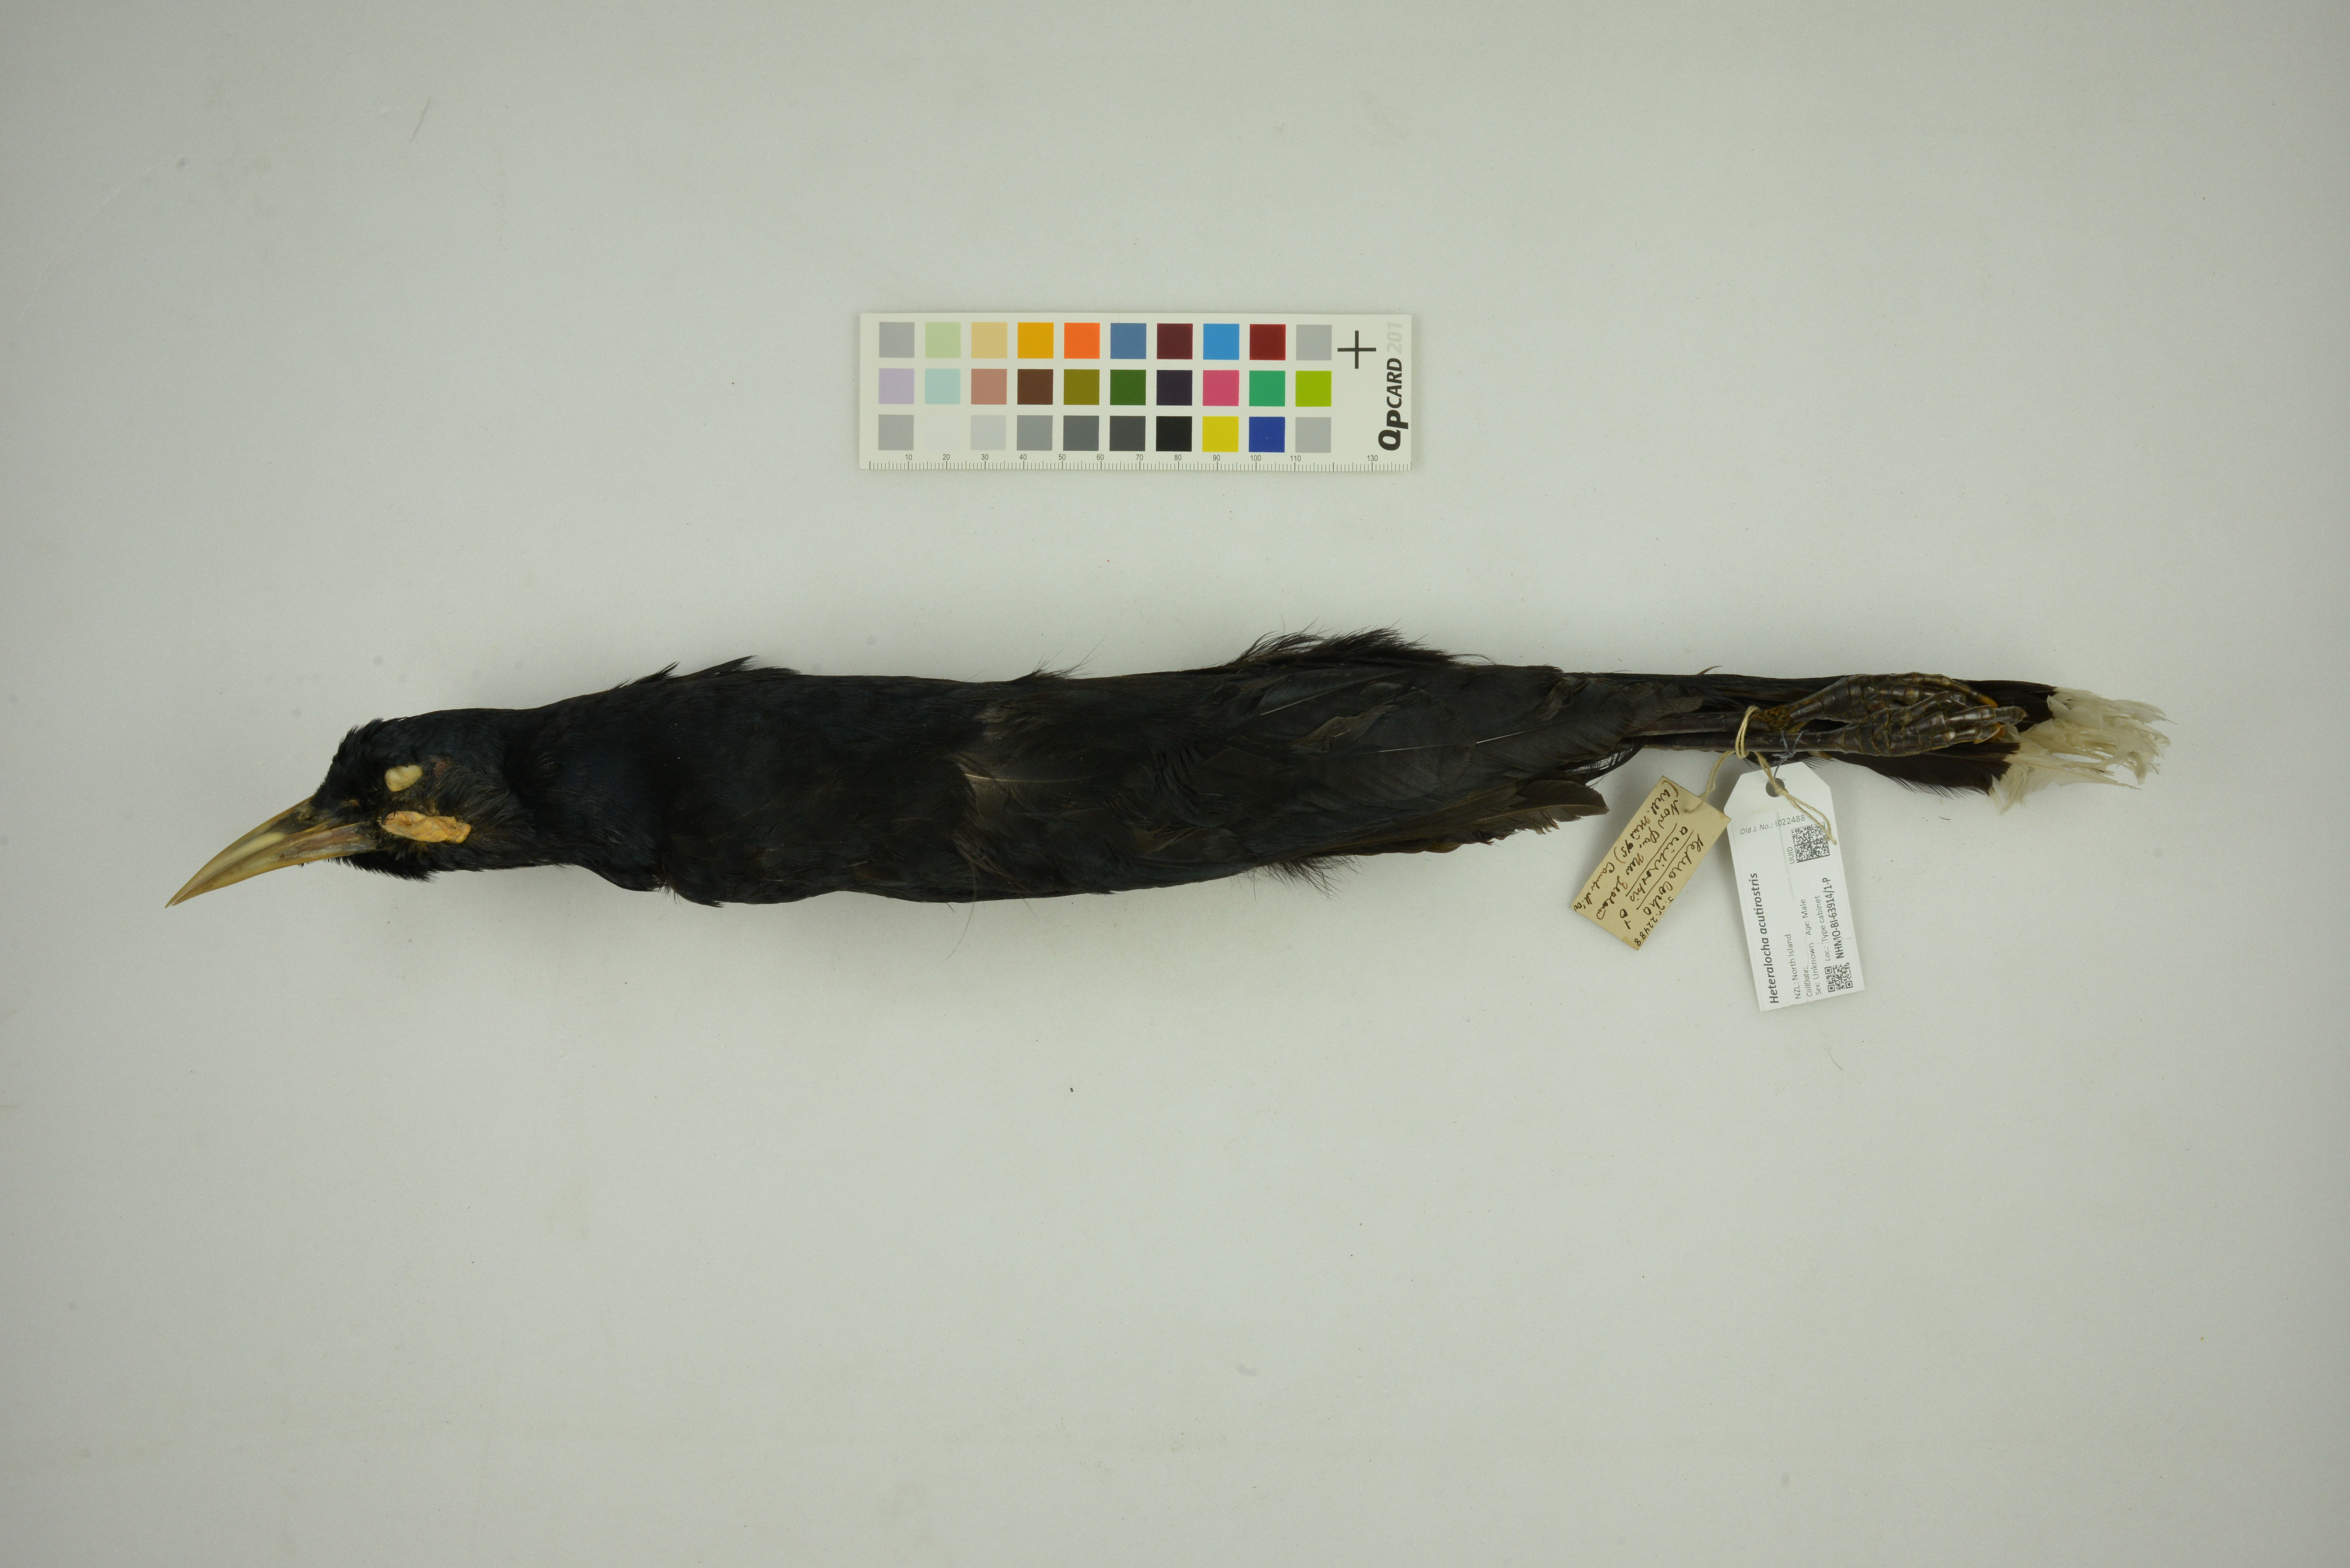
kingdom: Animalia
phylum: Chordata
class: Aves
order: Passeriformes
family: Callaeatidae
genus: Heteralocha
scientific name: Heteralocha acutirostris
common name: Huia
